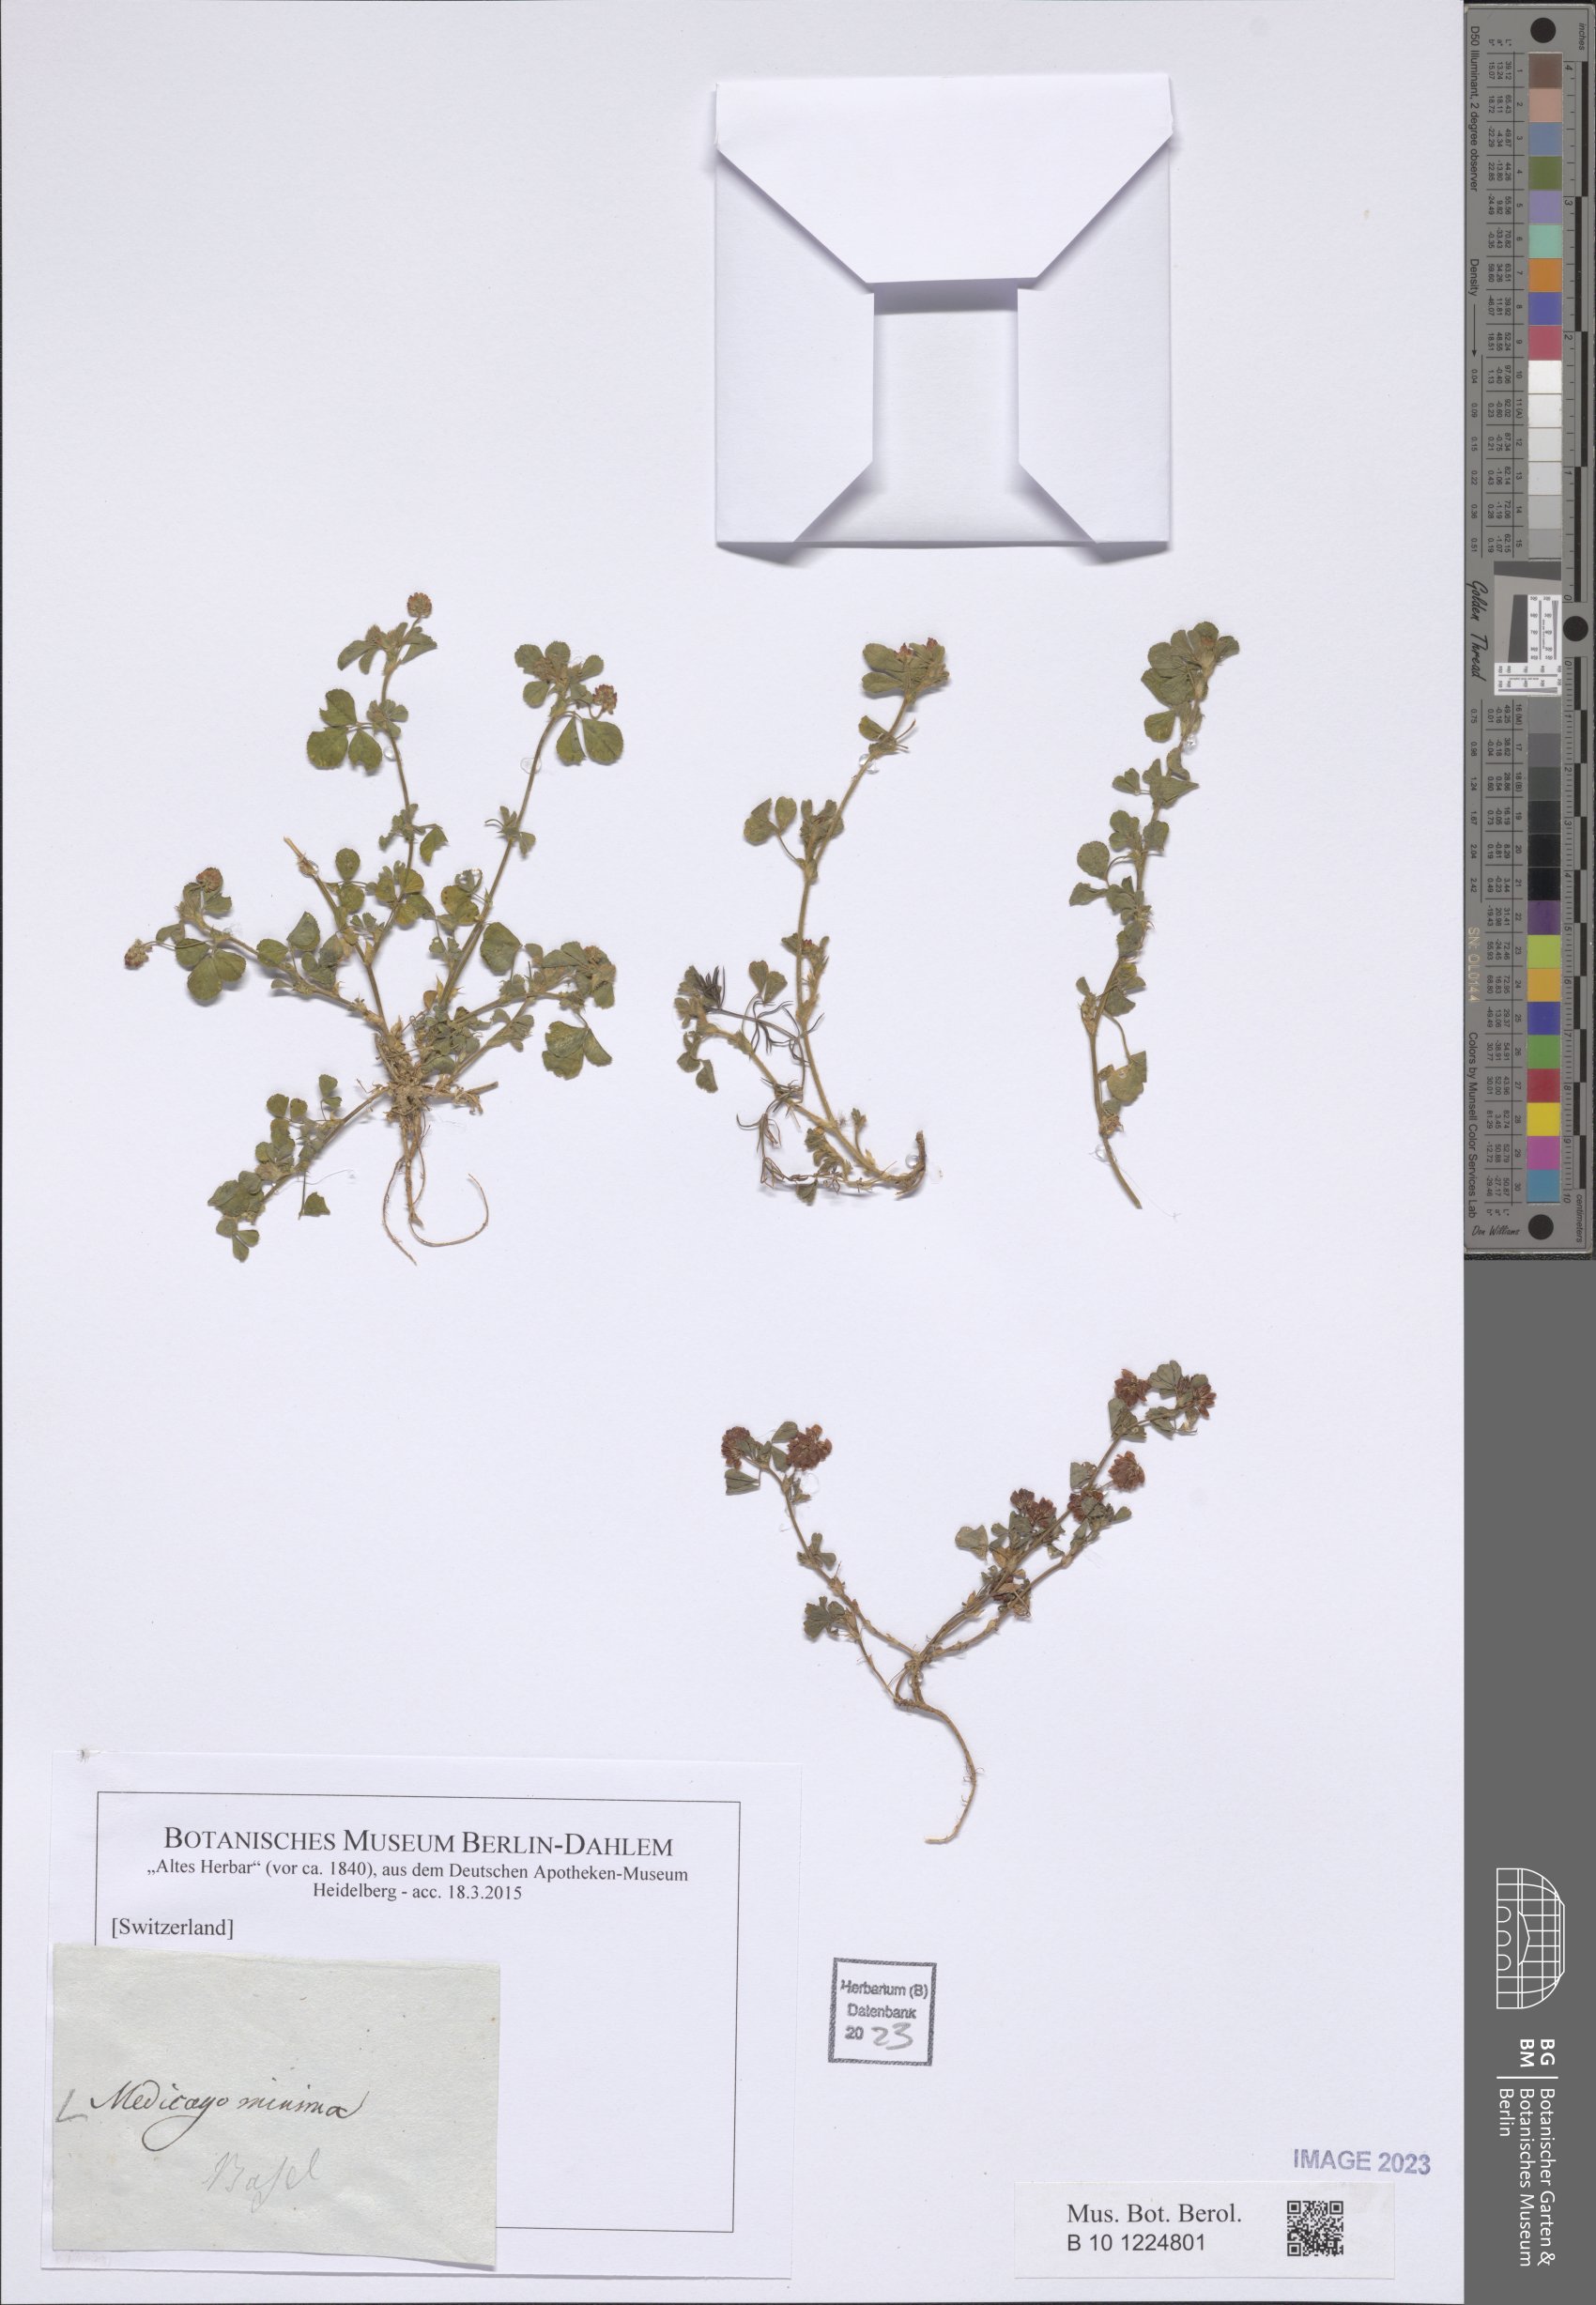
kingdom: Plantae
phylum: Tracheophyta
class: Magnoliopsida
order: Fabales
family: Fabaceae
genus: Medicago
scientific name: Medicago minima
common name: Little bur-clover
